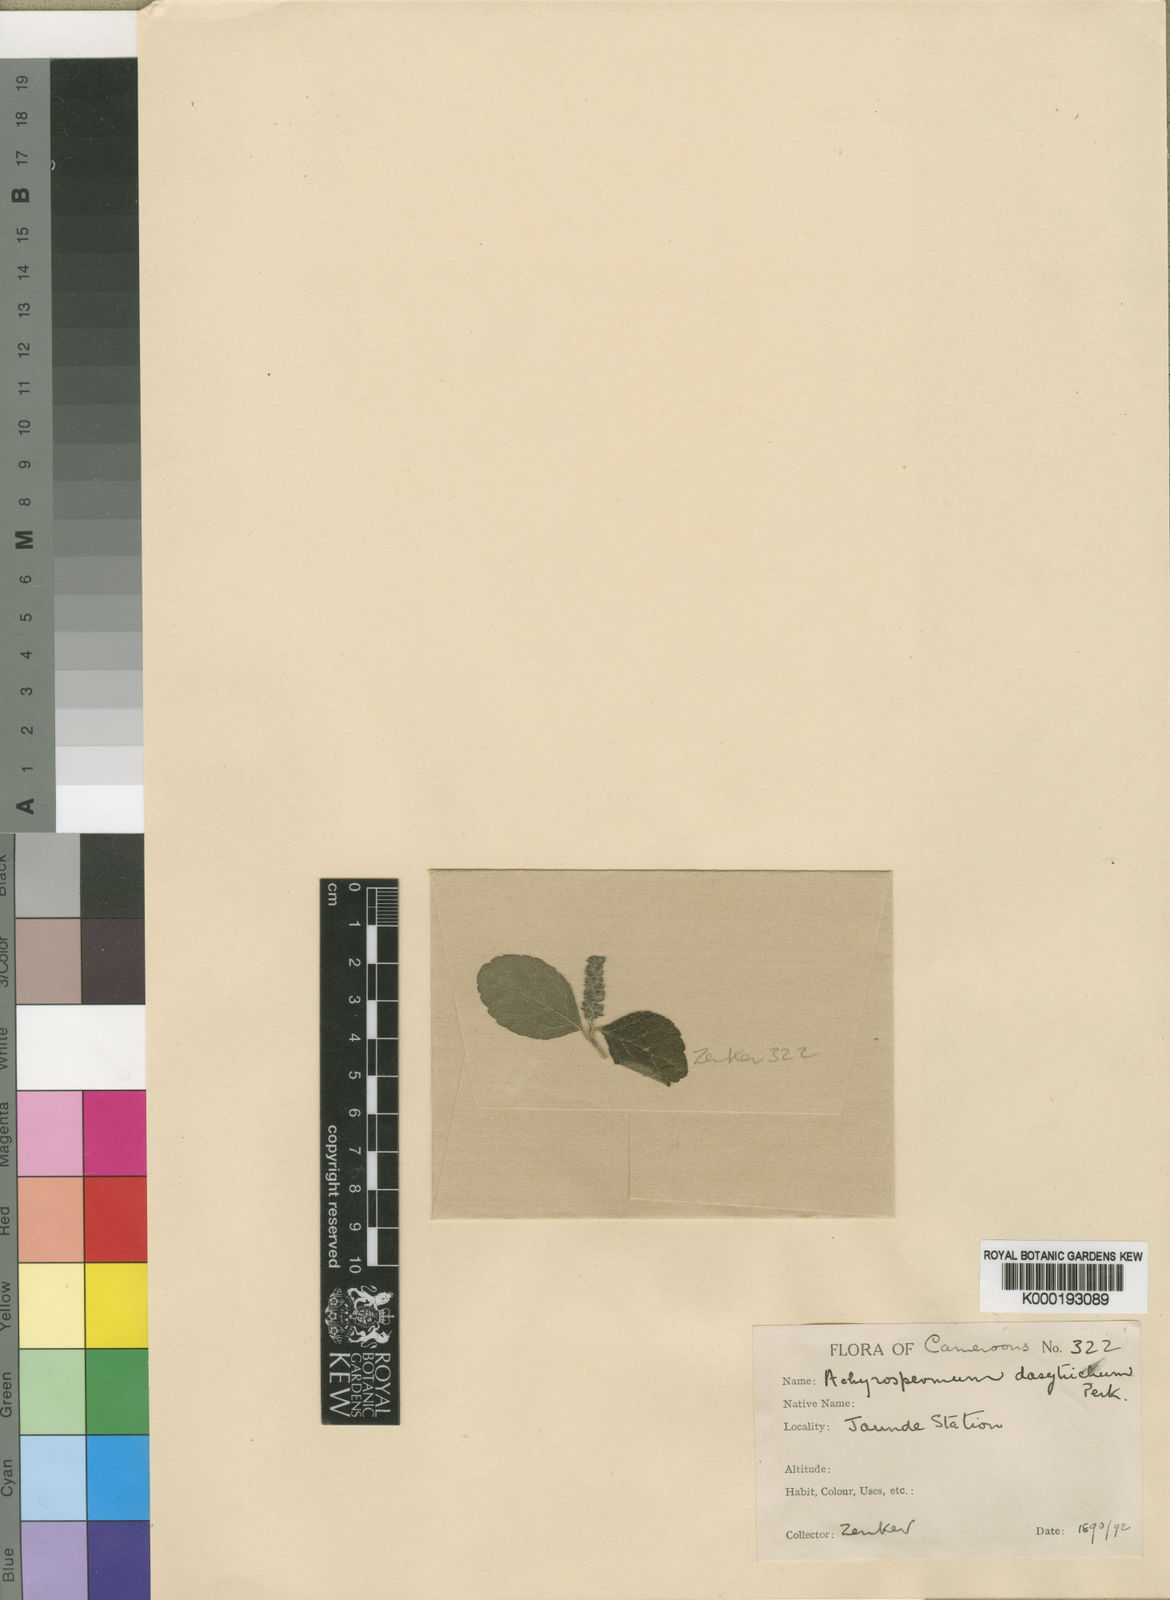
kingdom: Plantae
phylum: Tracheophyta
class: Magnoliopsida
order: Lamiales
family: Lamiaceae
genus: Achyrospermum
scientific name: Achyrospermum dasytrichum
